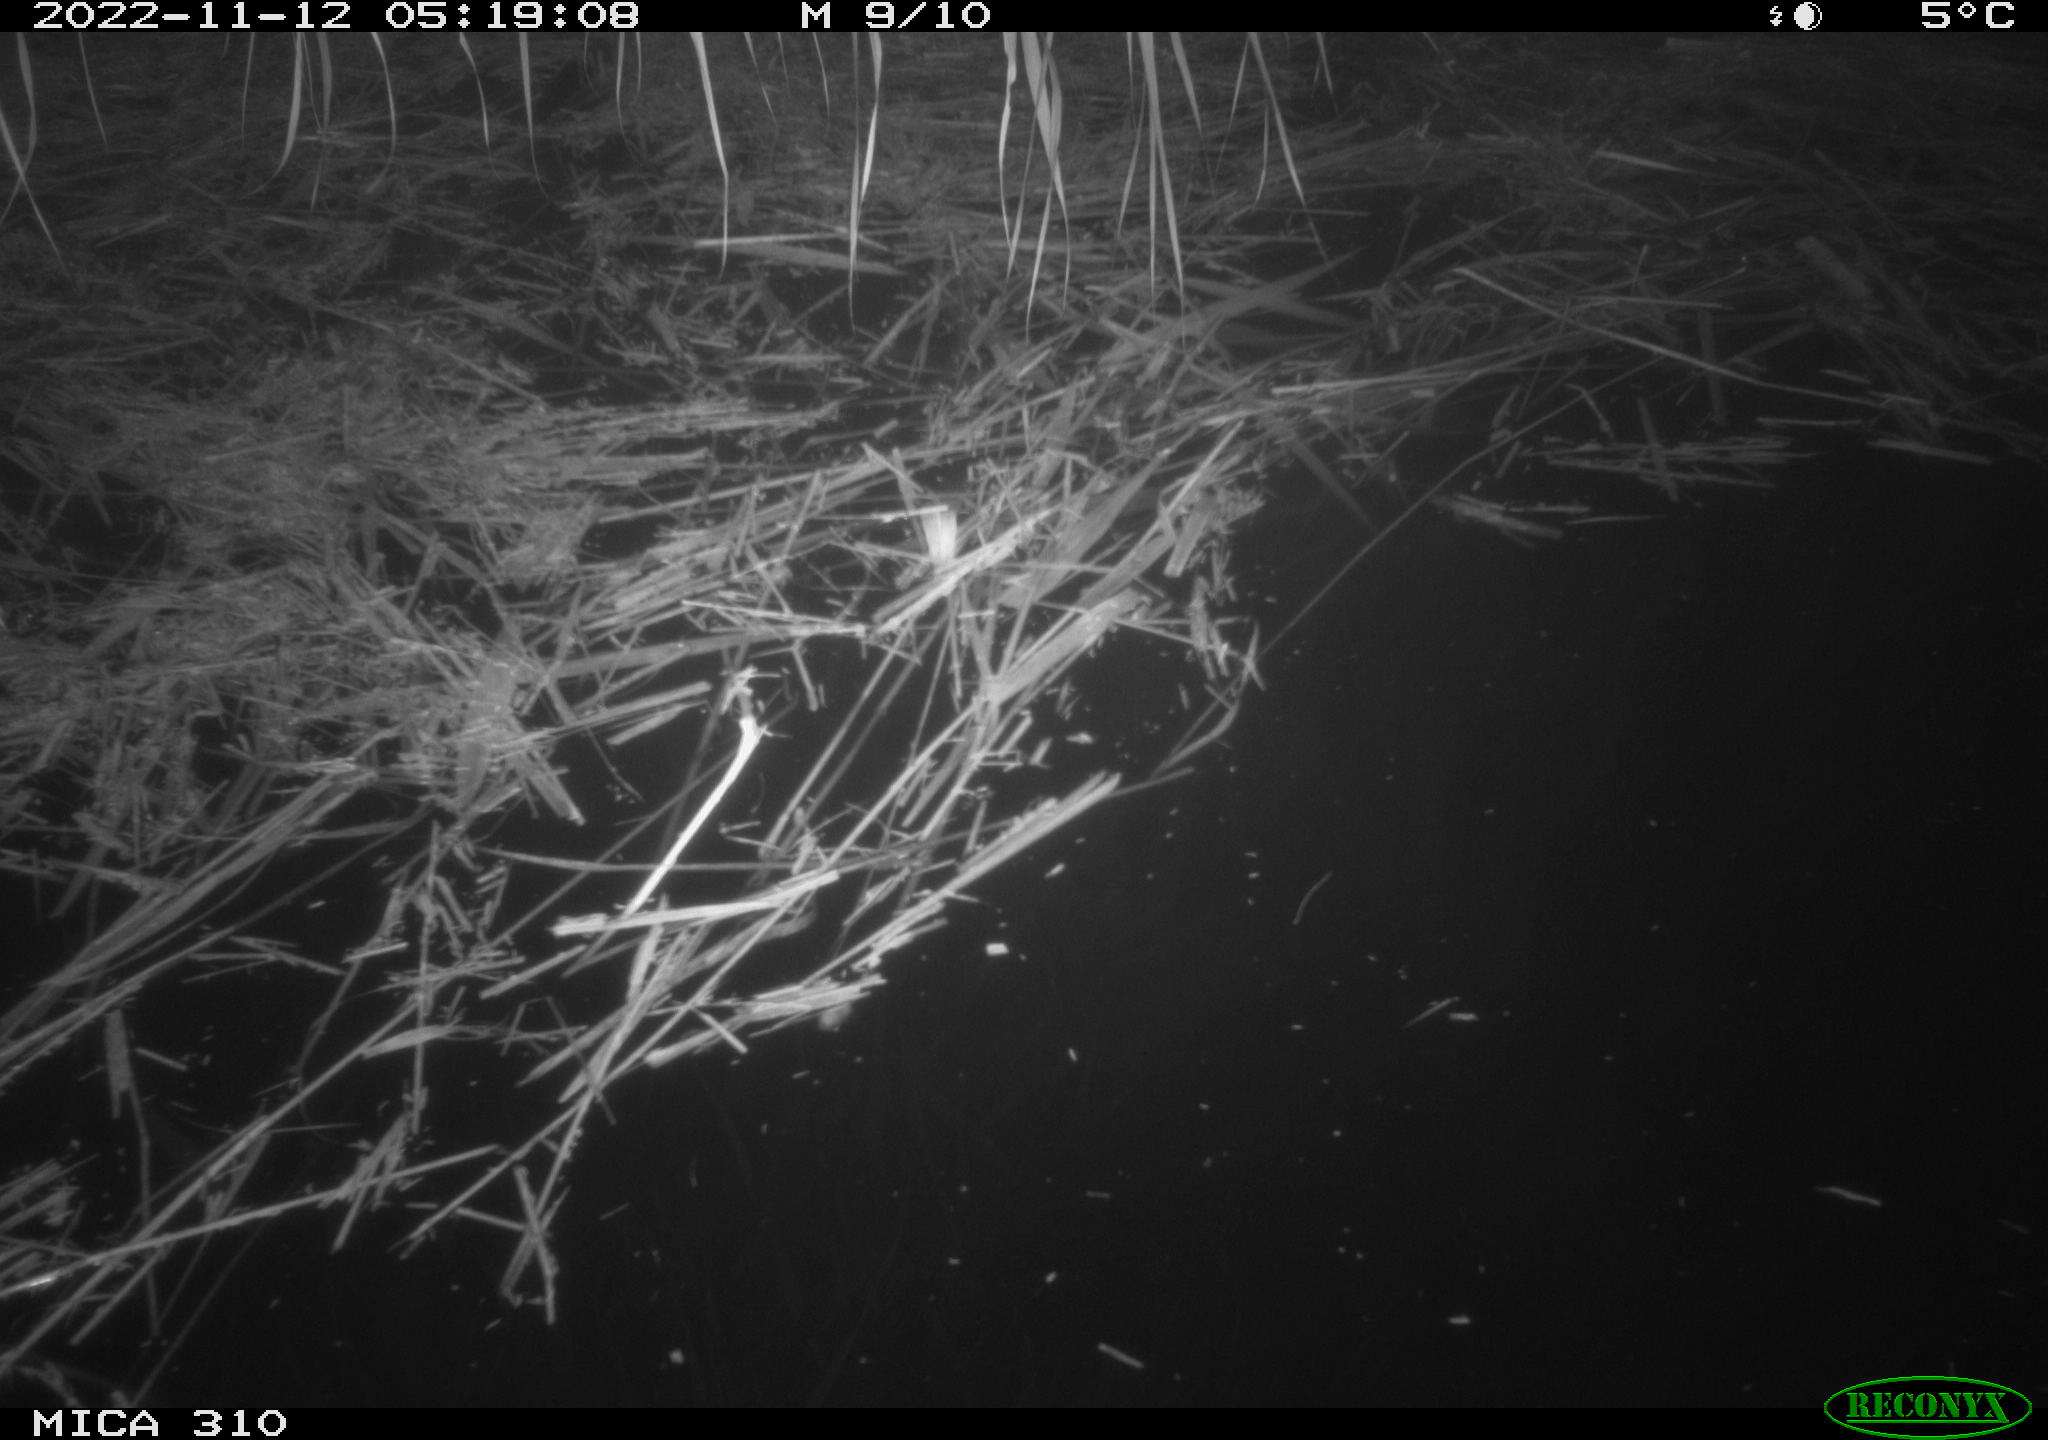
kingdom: Animalia
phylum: Chordata
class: Mammalia
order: Rodentia
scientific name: Rodentia
